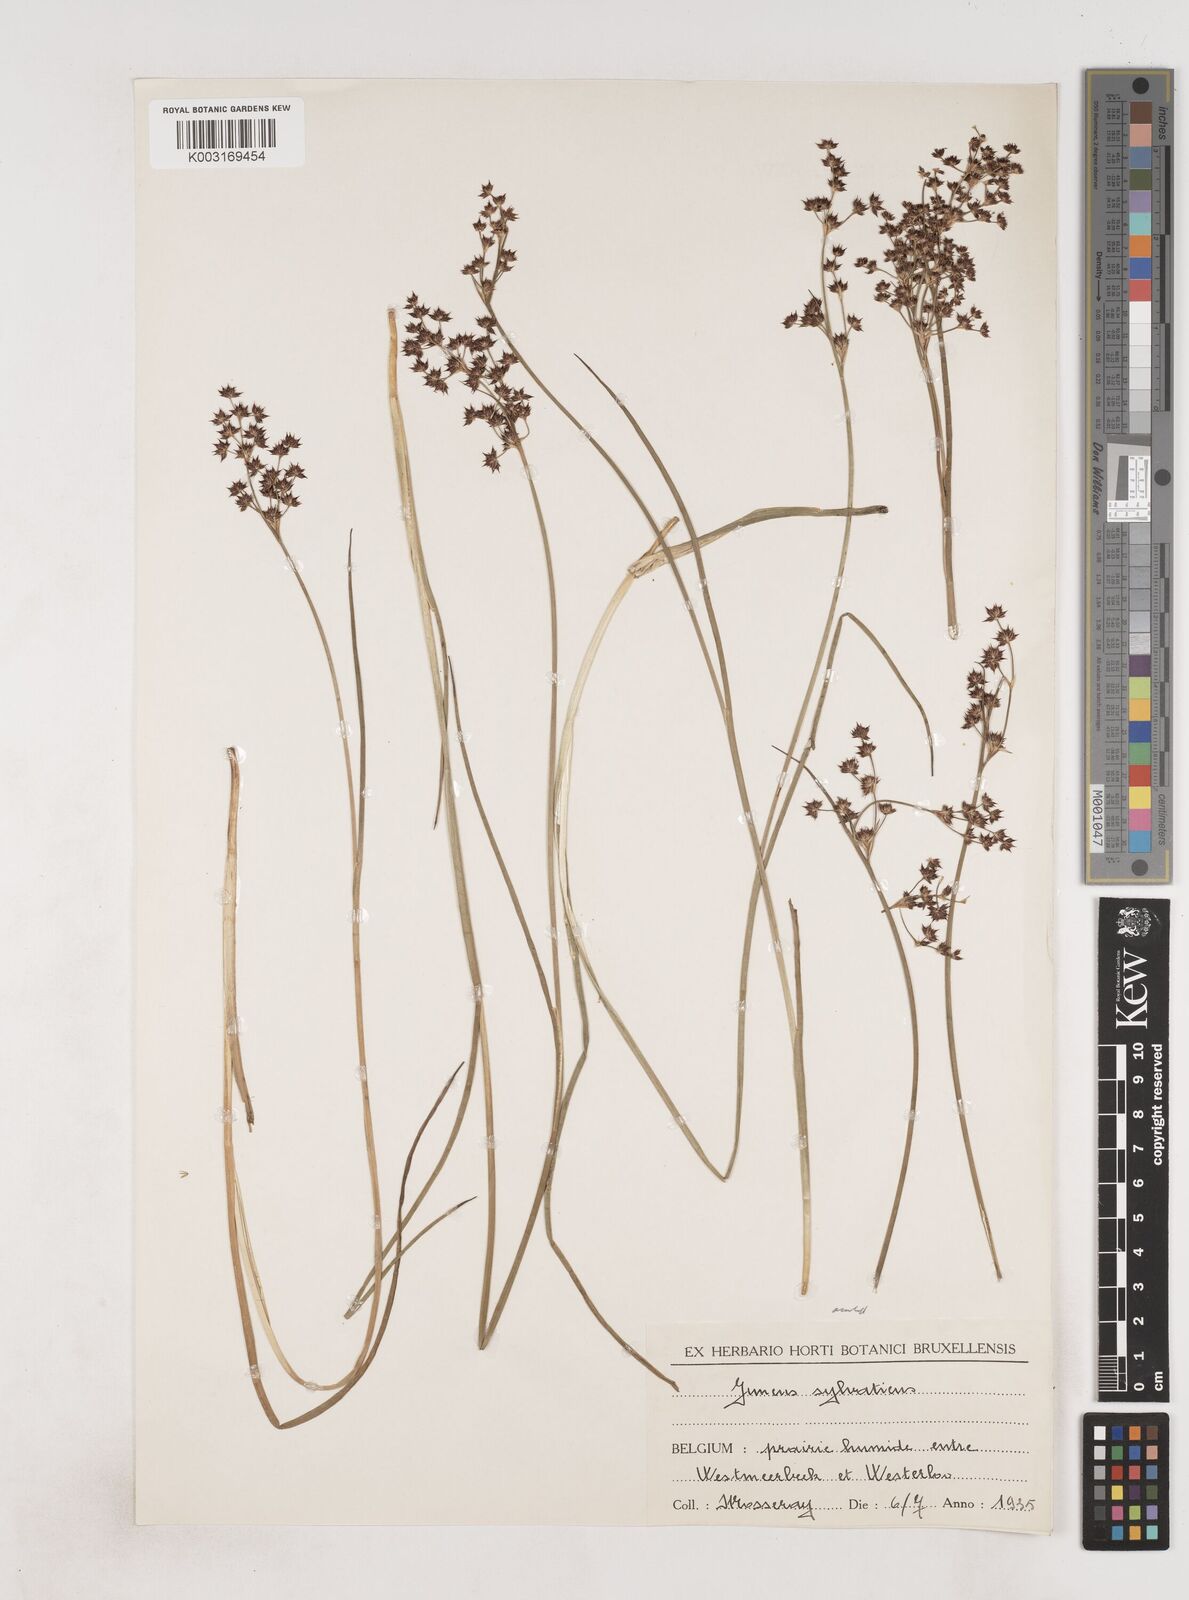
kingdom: Plantae
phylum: Tracheophyta
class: Liliopsida
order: Poales
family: Juncaceae
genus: Juncus
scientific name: Juncus acutiflorus
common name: Sharp-flowered rush
